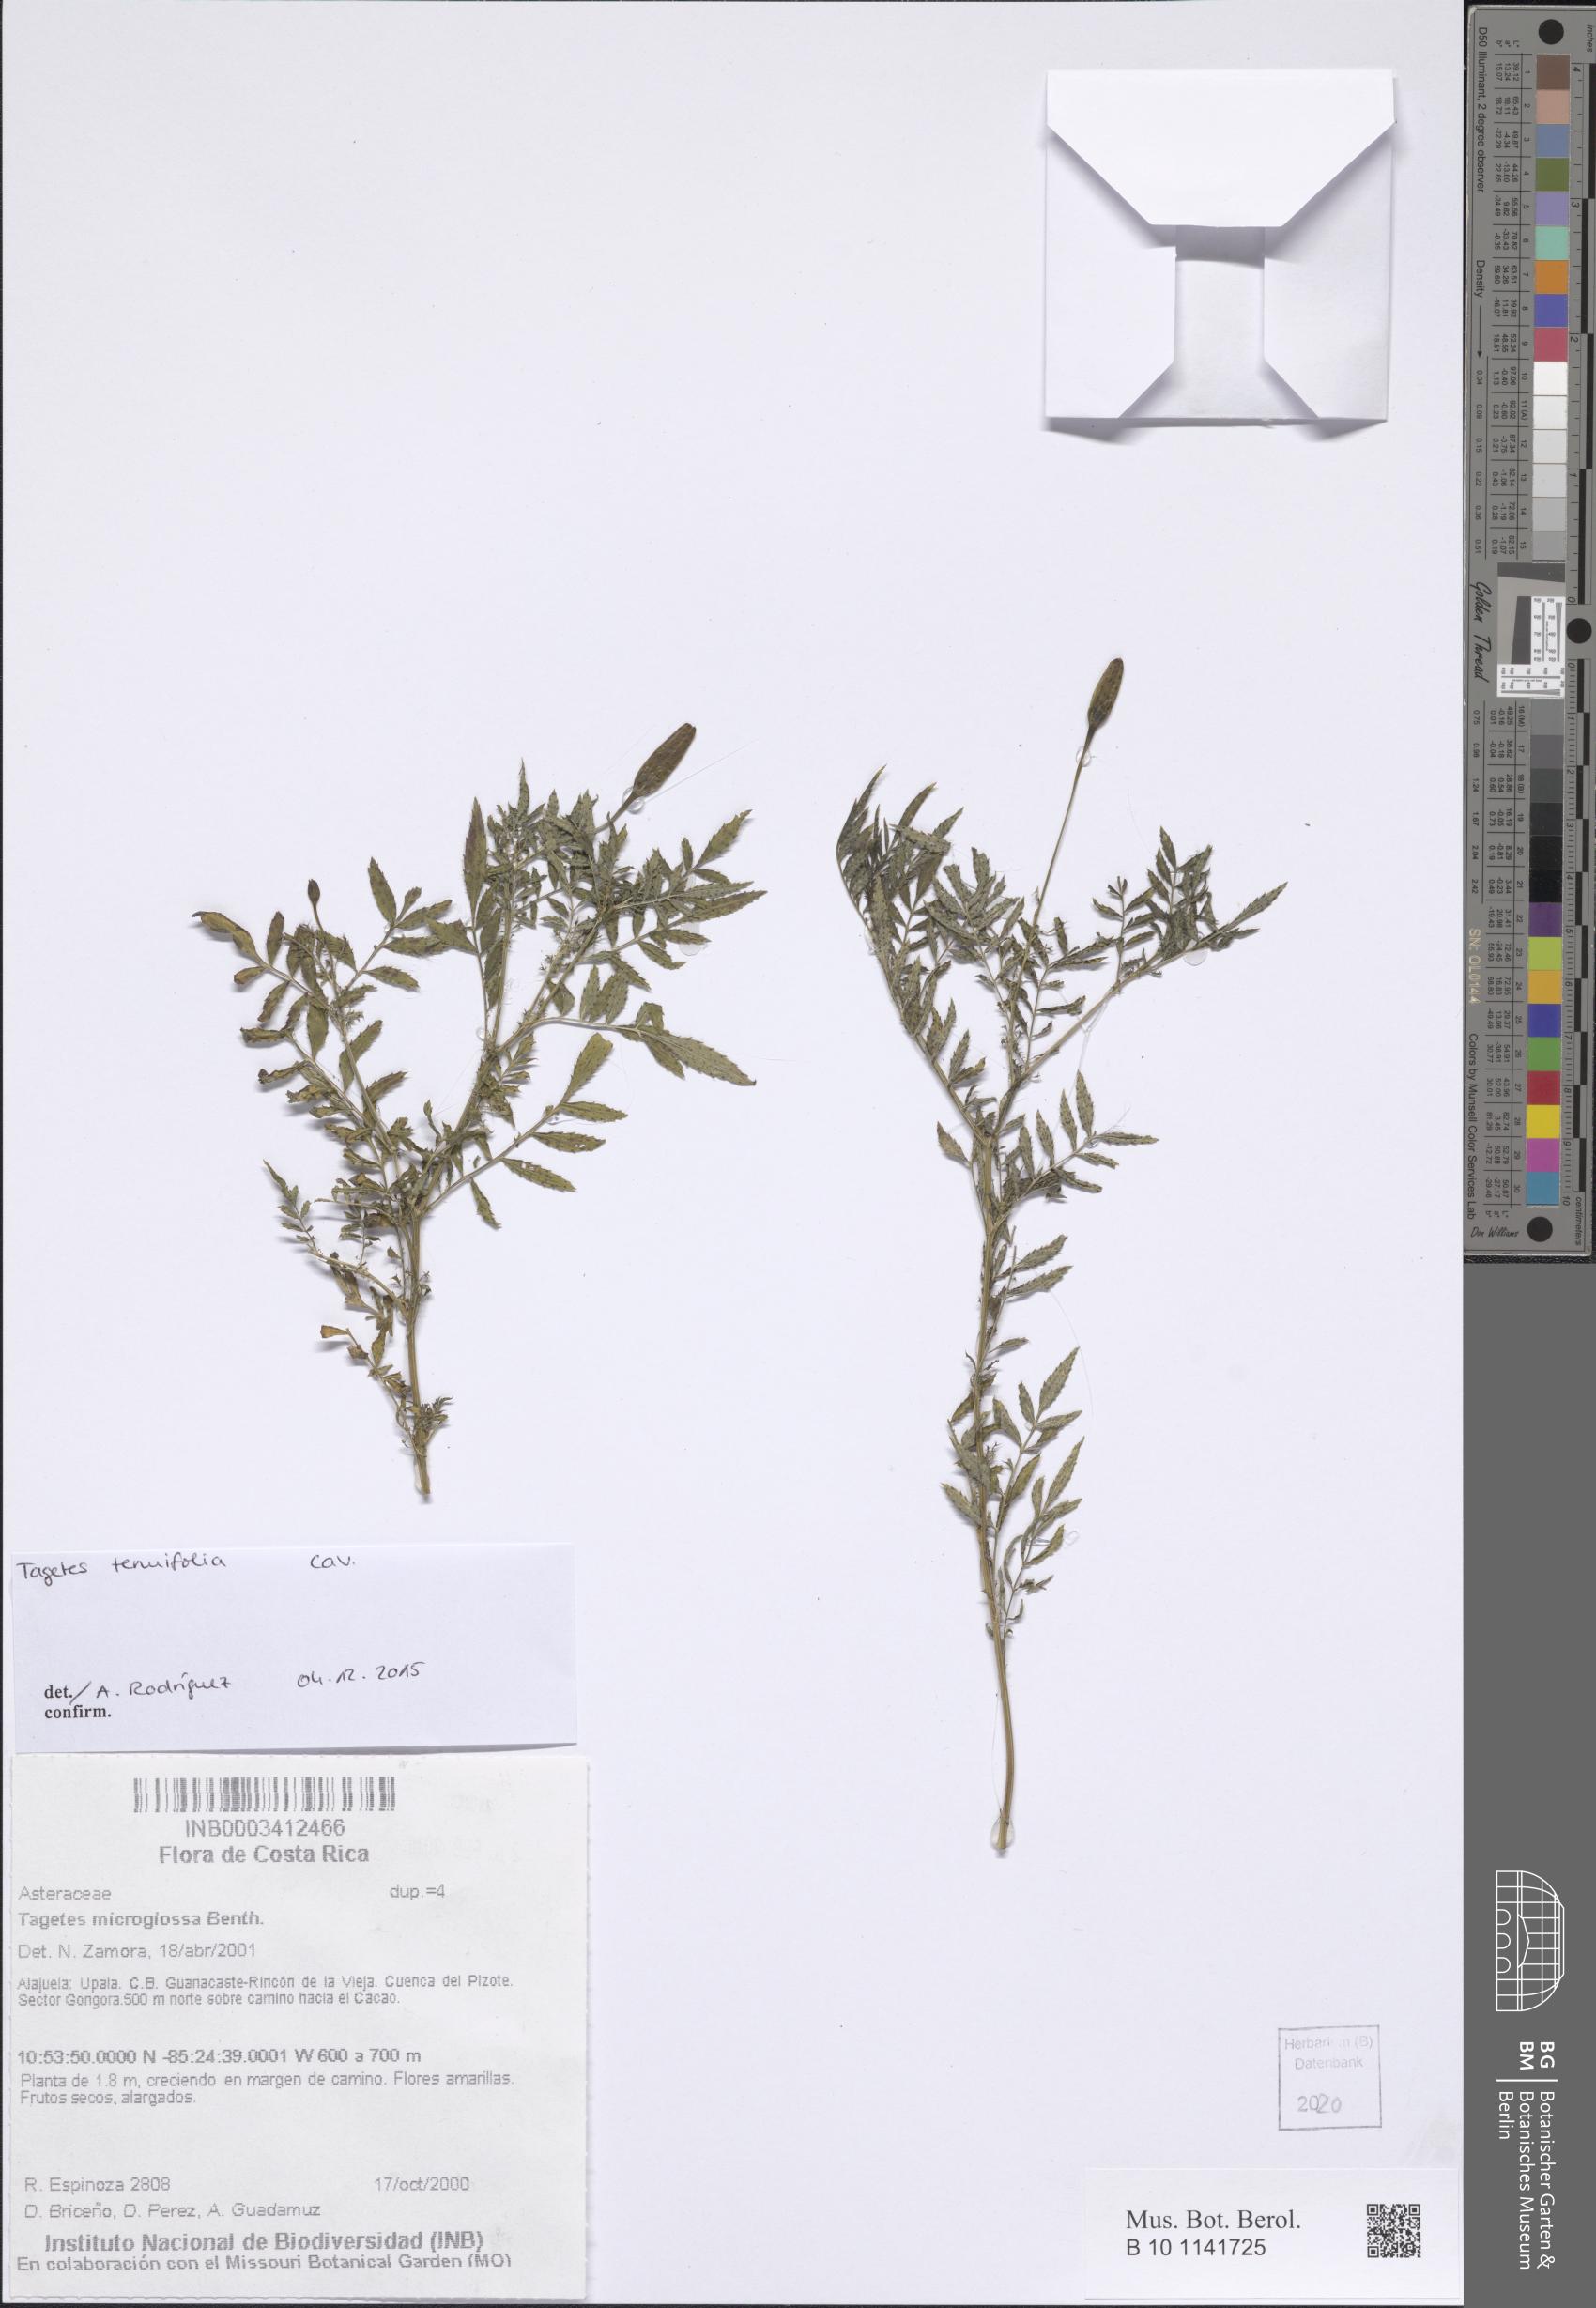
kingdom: Plantae
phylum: Tracheophyta
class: Magnoliopsida
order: Asterales
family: Asteraceae
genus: Tagetes
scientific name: Tagetes tenuifolia
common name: Signet marigold
